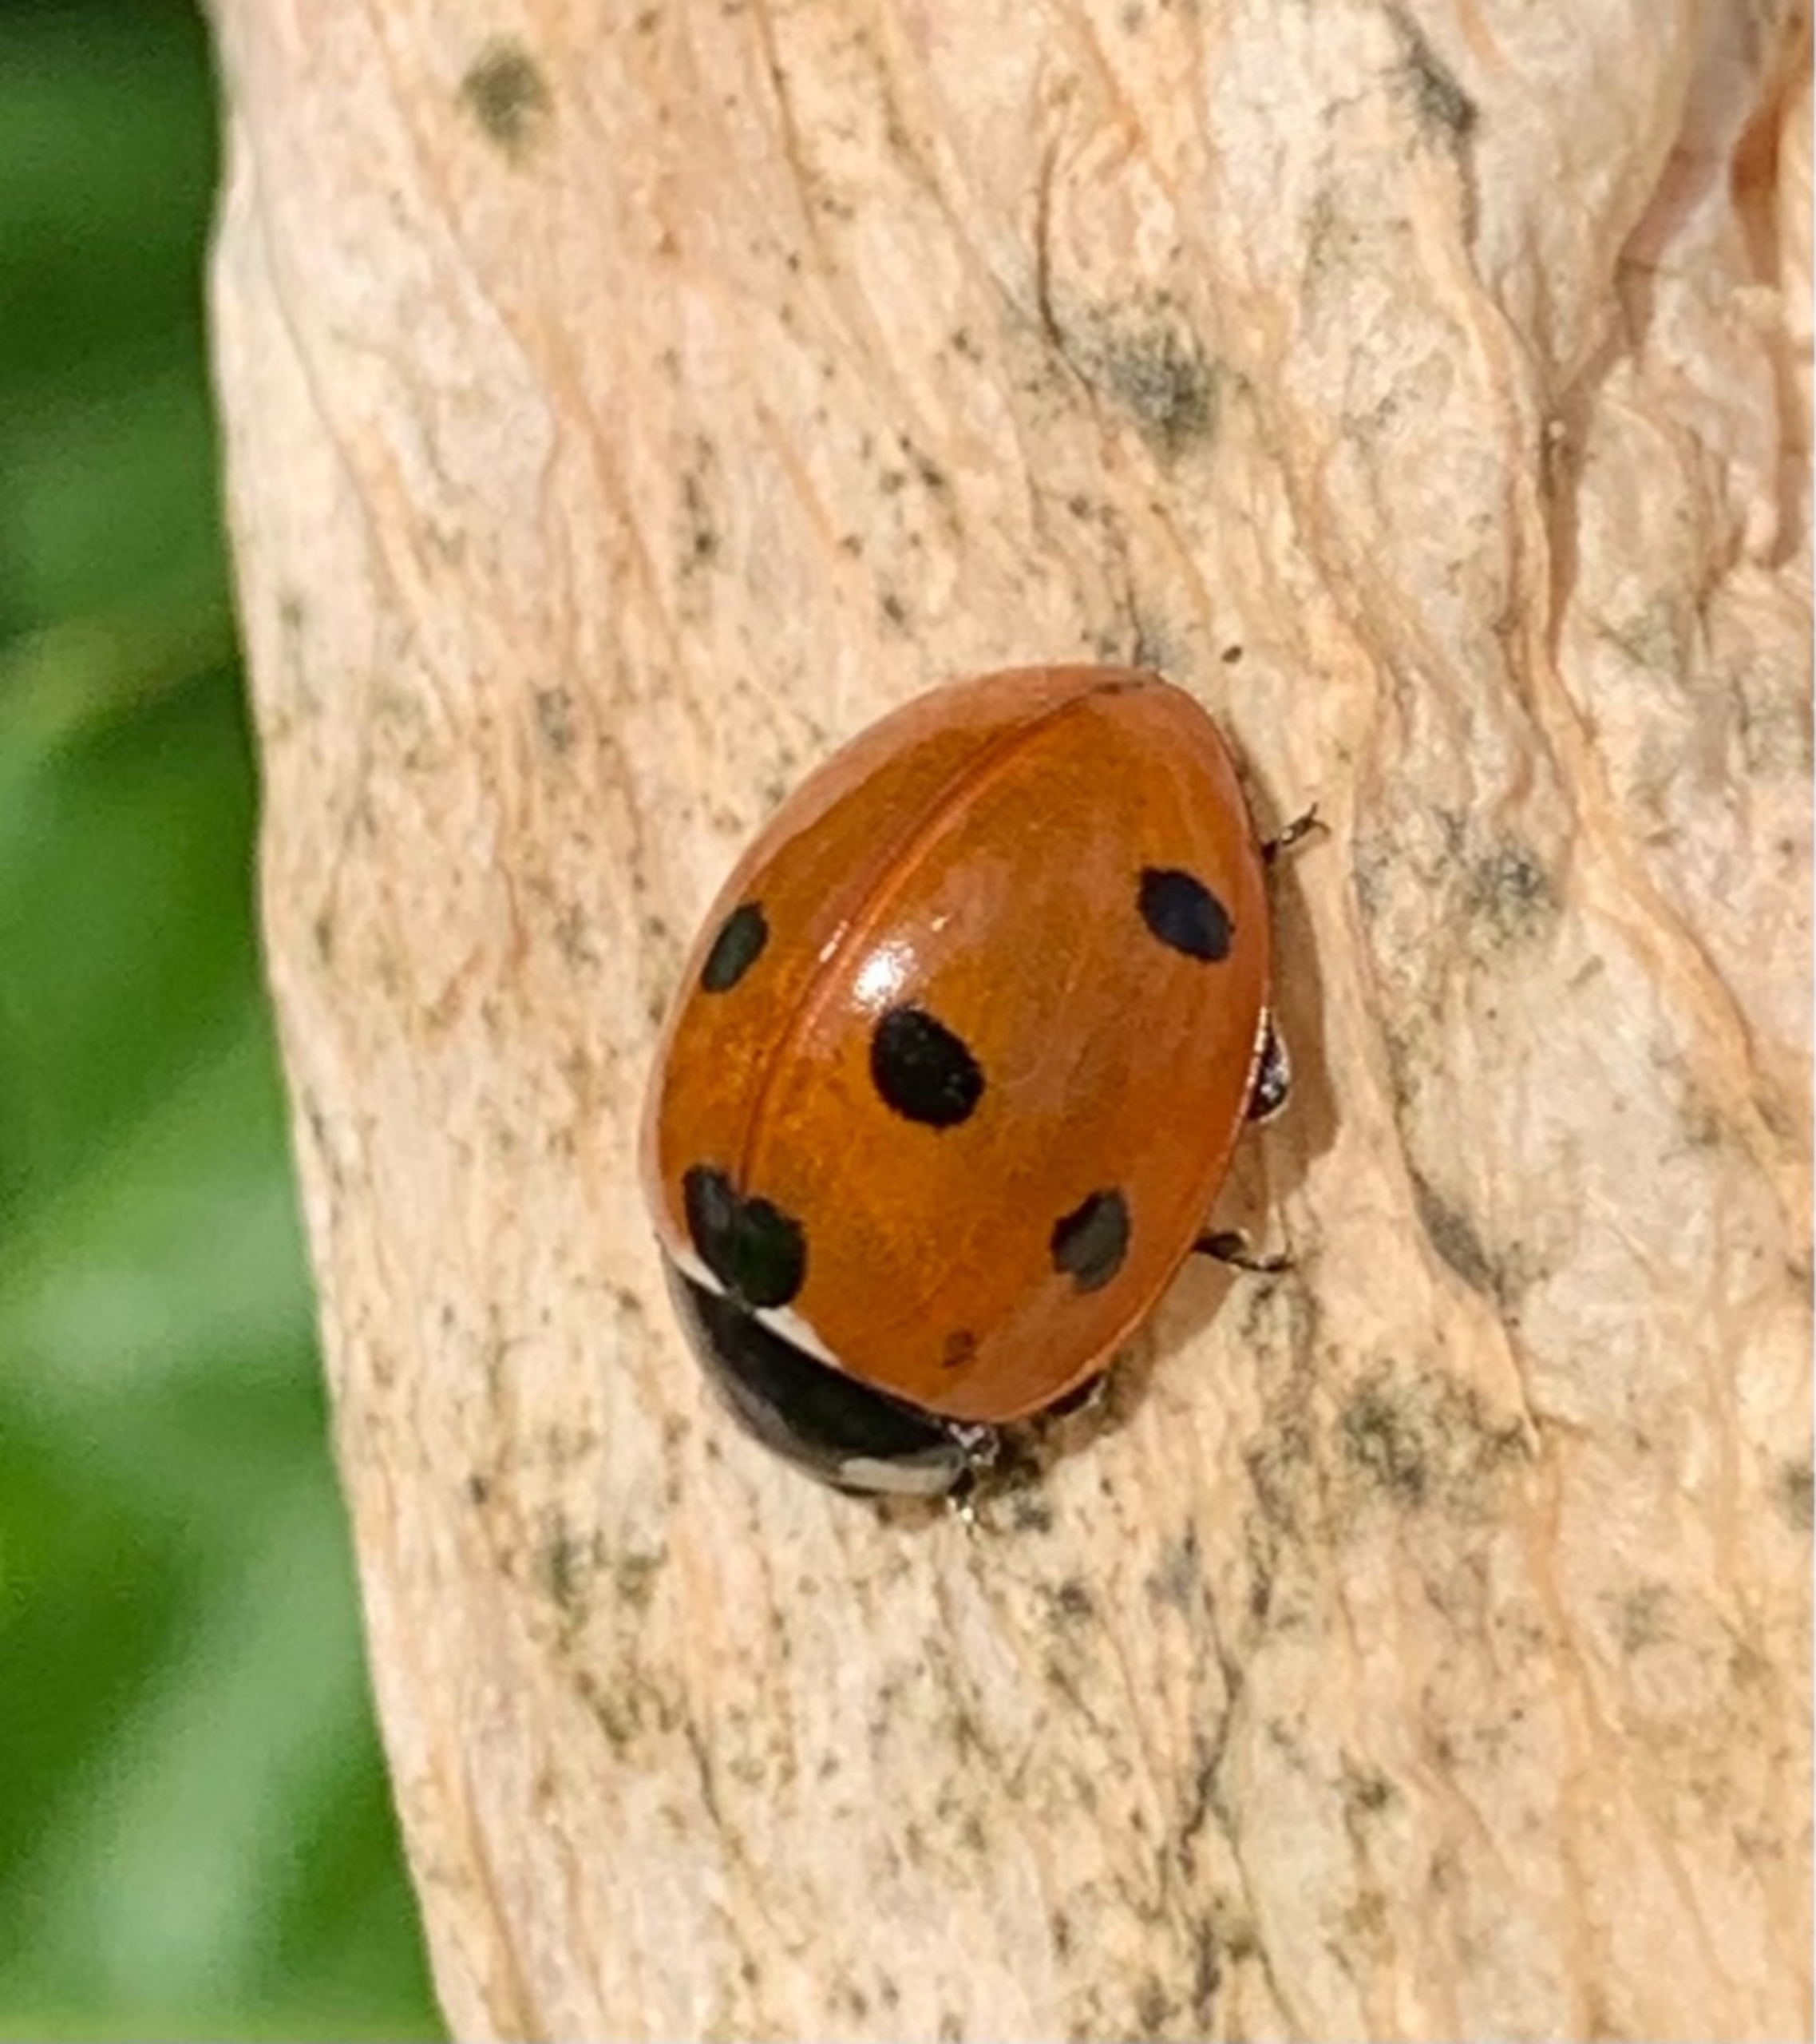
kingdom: Animalia
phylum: Arthropoda
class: Insecta
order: Coleoptera
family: Coccinellidae
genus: Coccinella
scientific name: Coccinella septempunctata
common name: Syvplettet mariehøne
